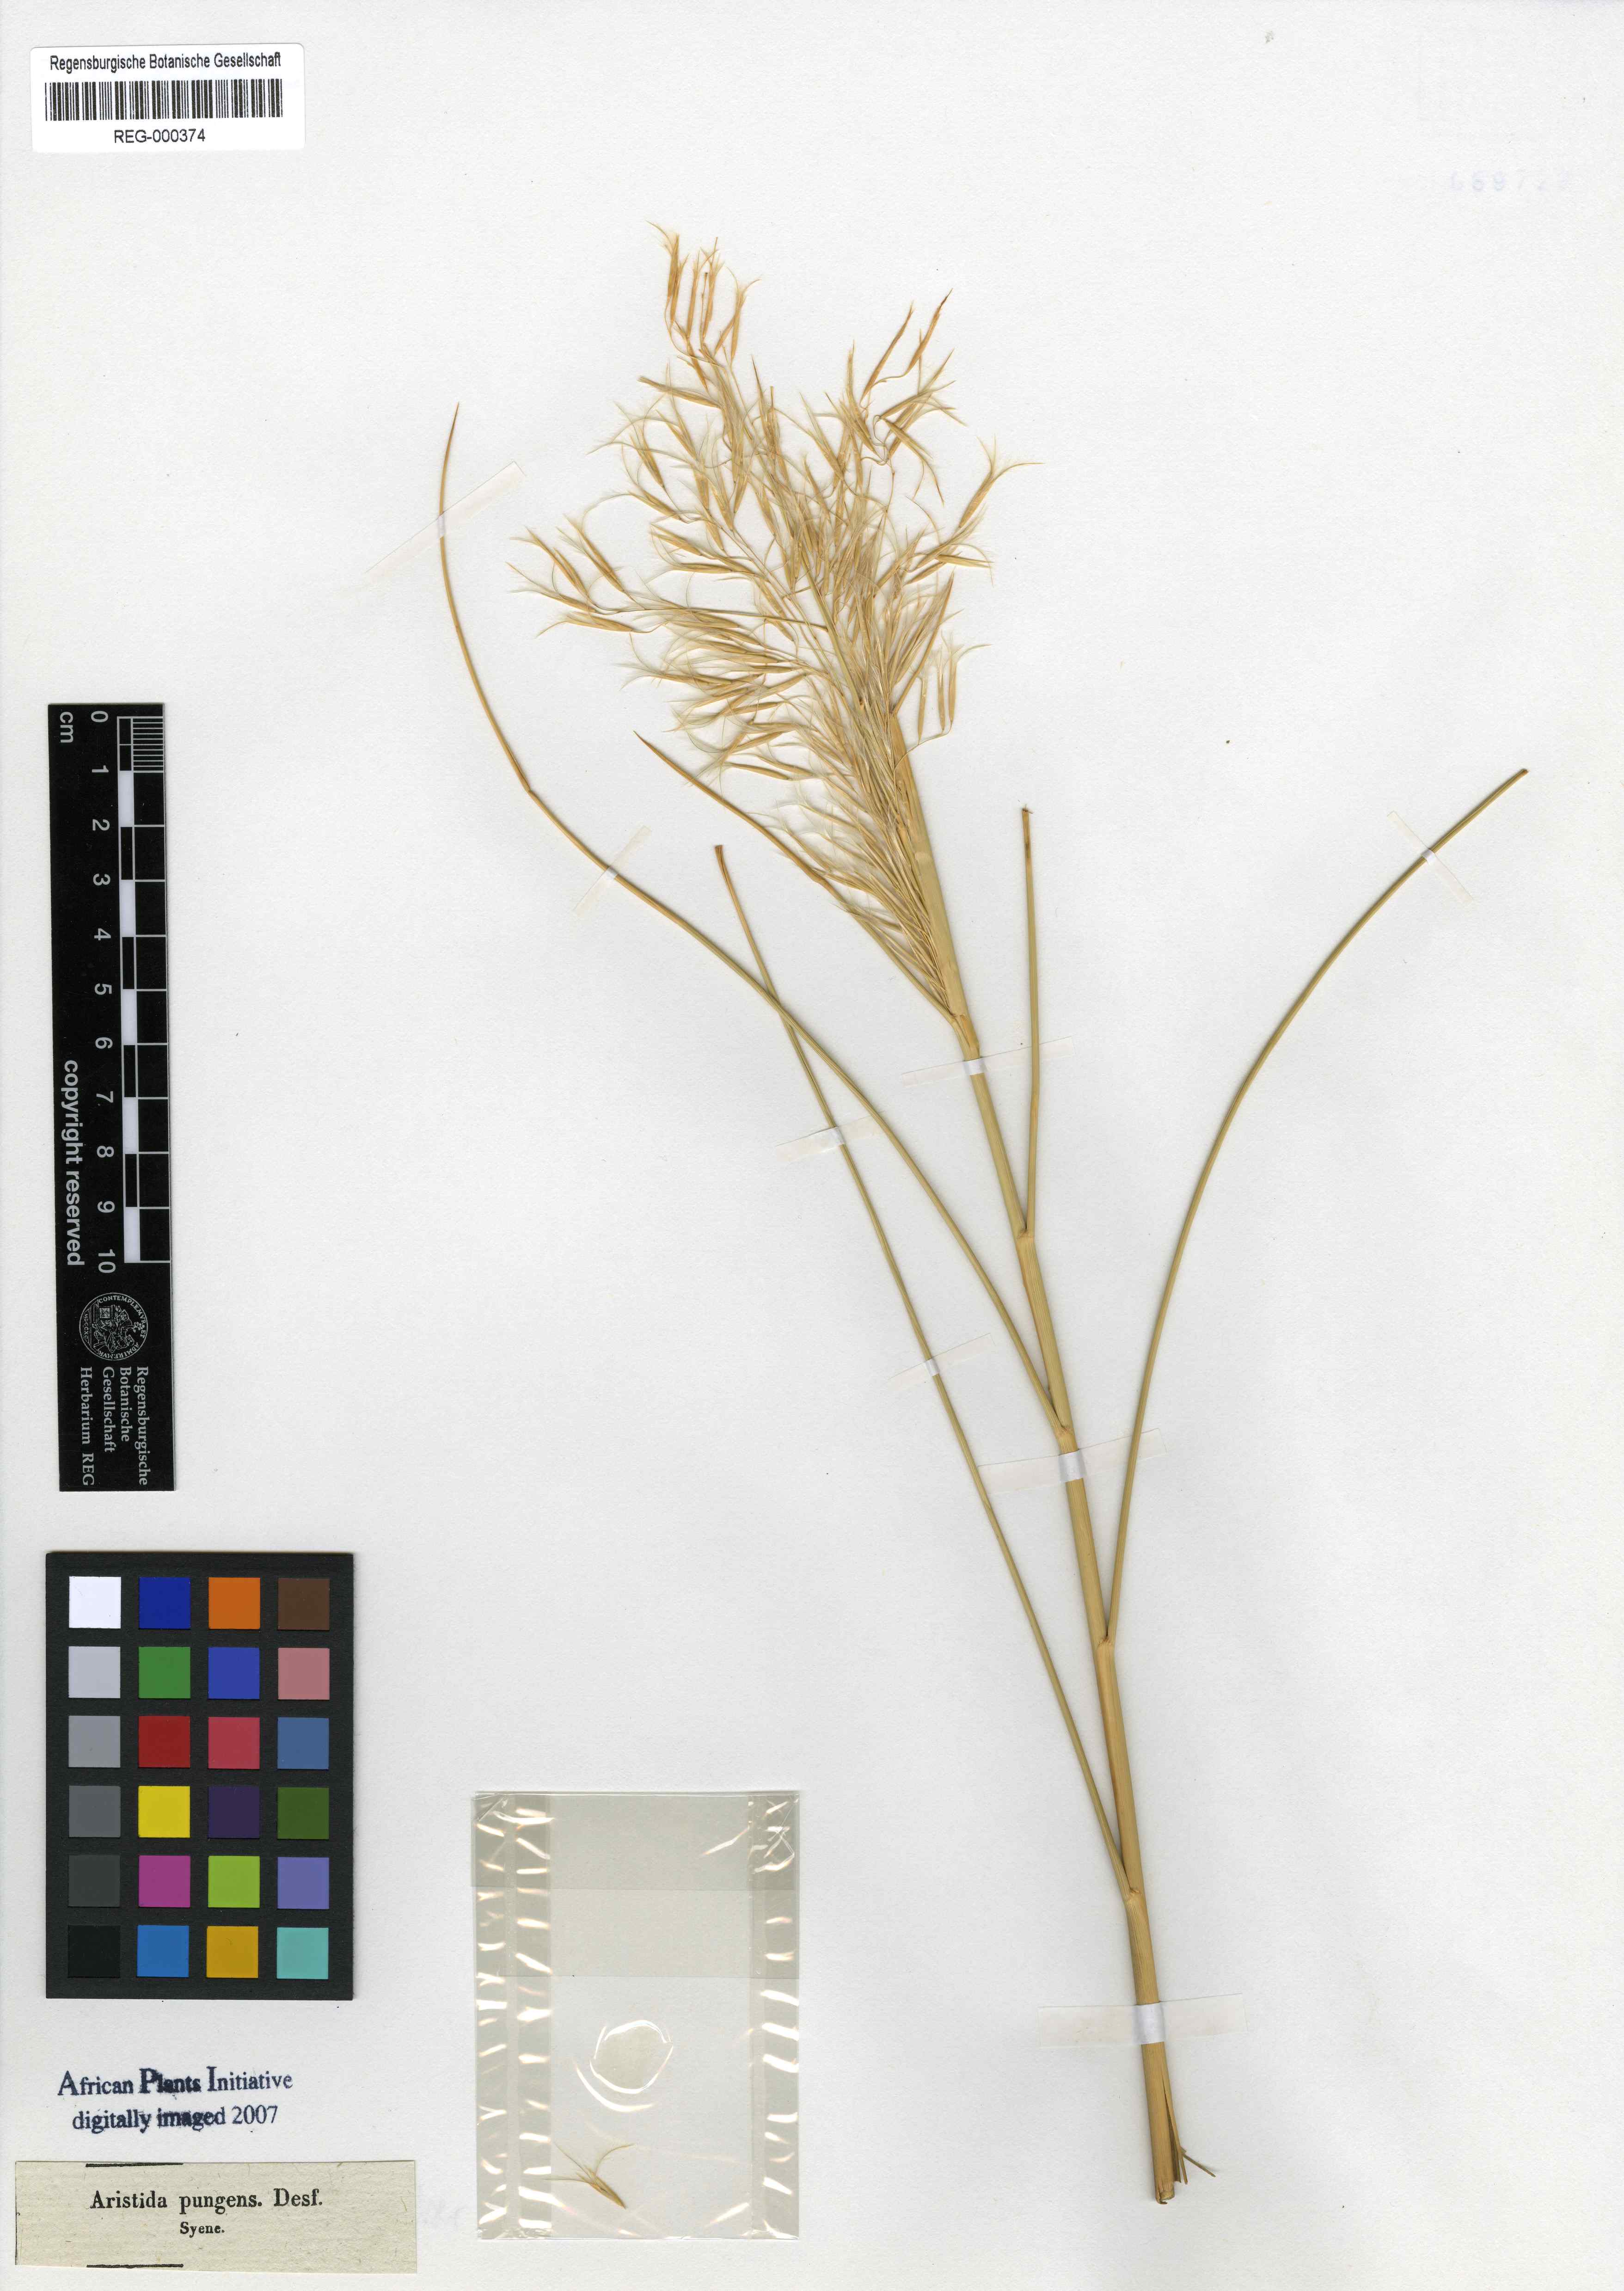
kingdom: Plantae
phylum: Tracheophyta
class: Liliopsida
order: Poales
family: Poaceae
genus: Stipagrostis
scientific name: Stipagrostis pungens
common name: Three-awn grass
